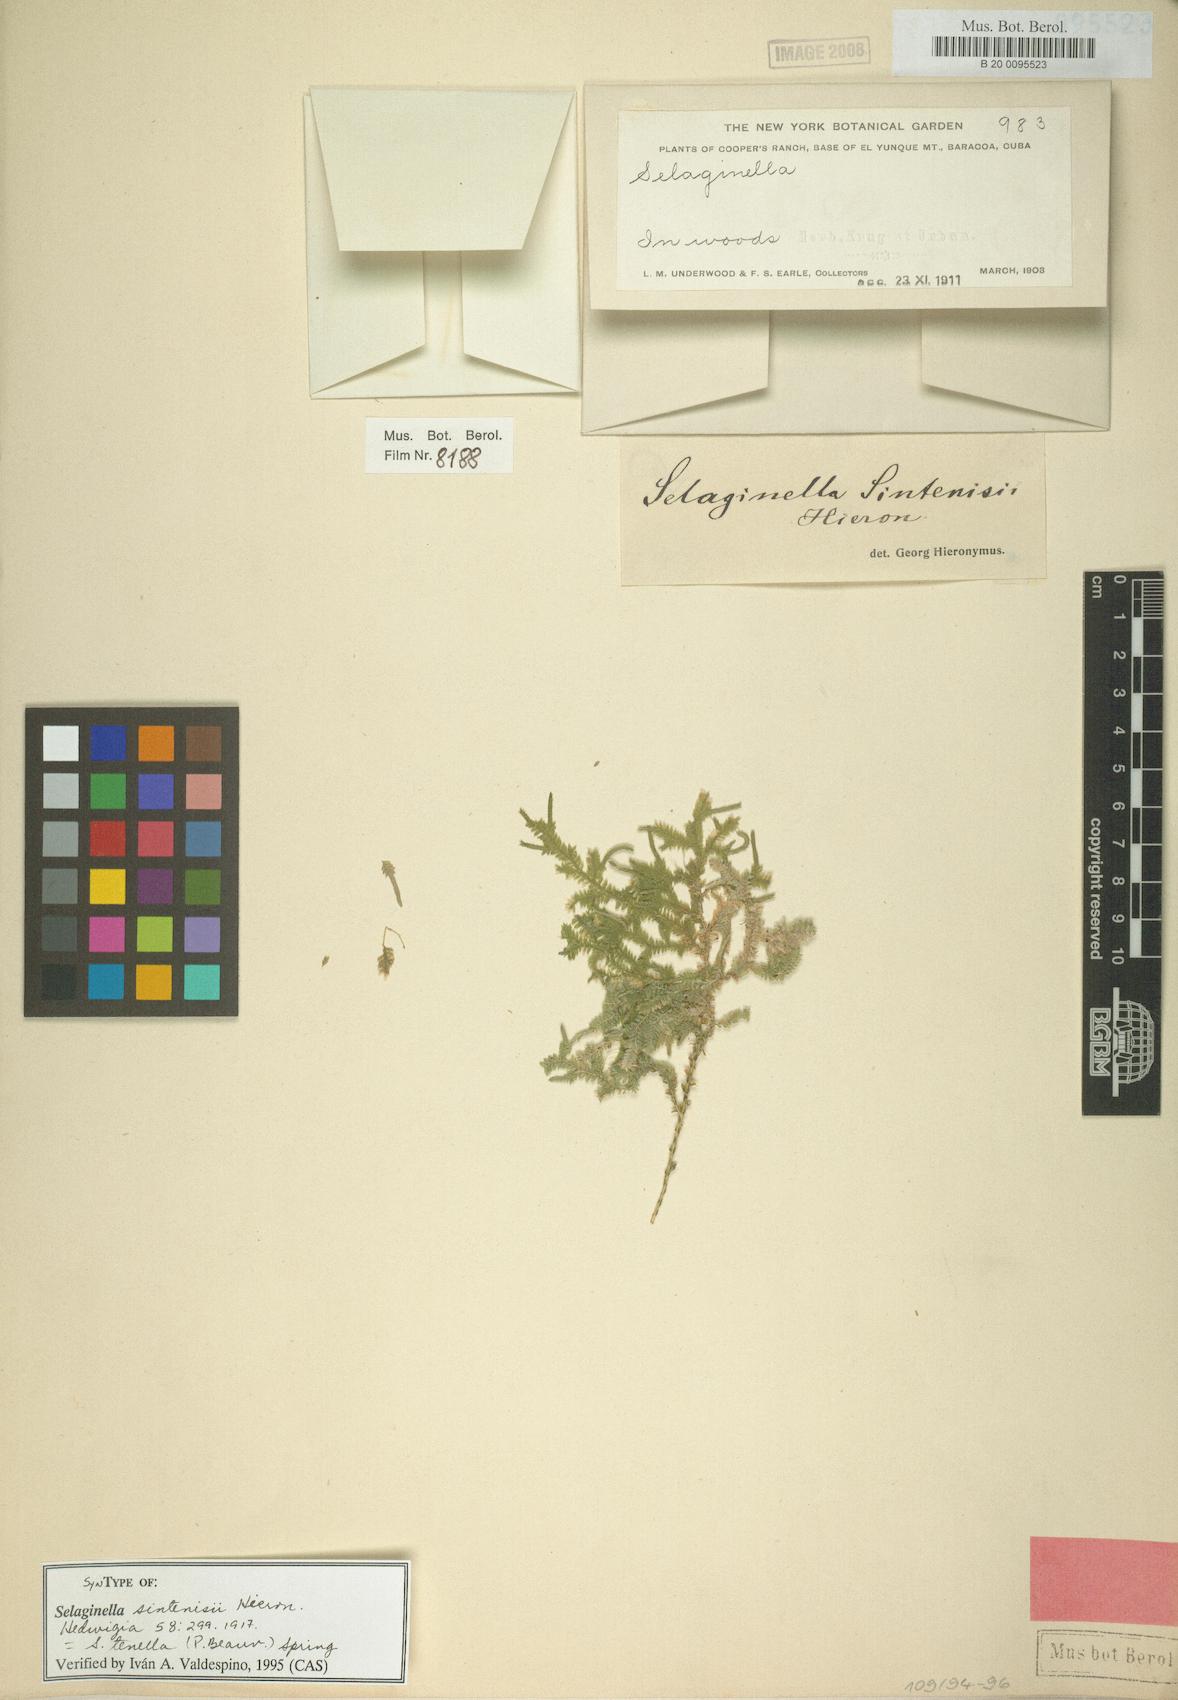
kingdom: Plantae
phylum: Tracheophyta
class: Lycopodiopsida
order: Selaginellales
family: Selaginellaceae
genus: Selaginella
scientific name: Selaginella tenella
